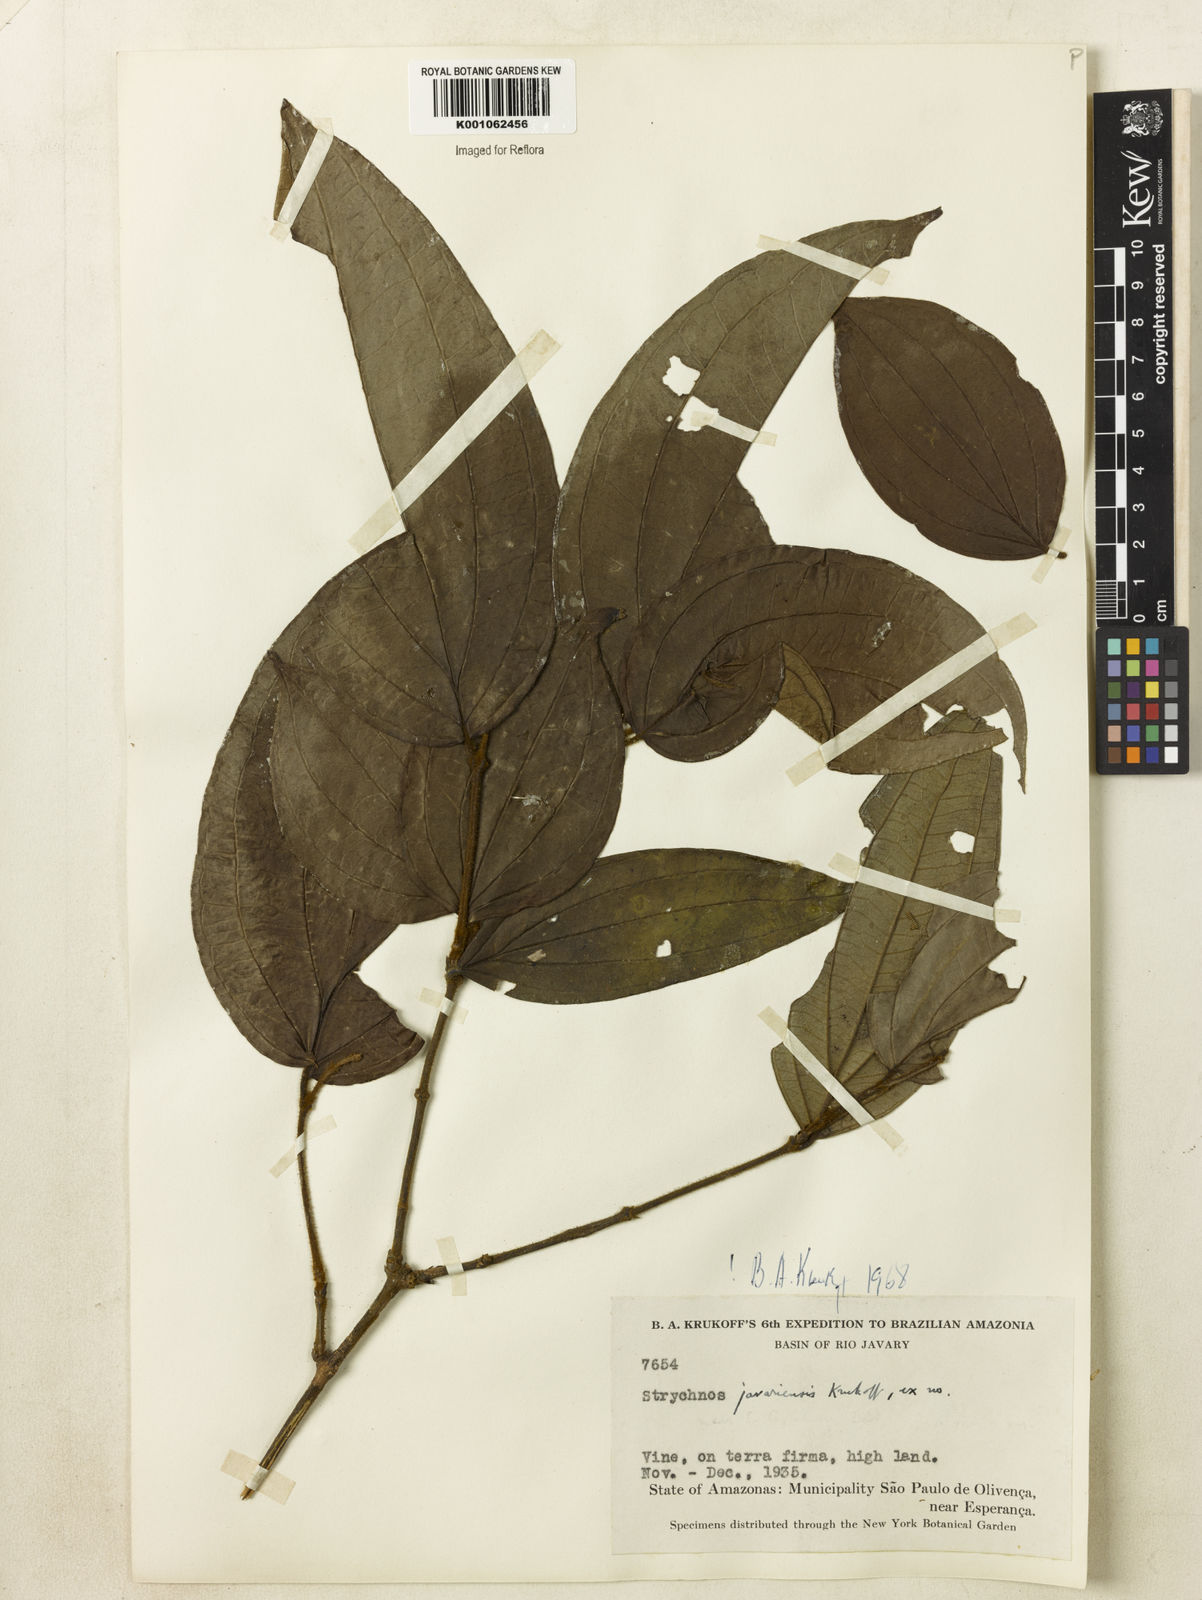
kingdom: Plantae
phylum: Tracheophyta
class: Magnoliopsida
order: Gentianales
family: Loganiaceae
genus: Strychnos
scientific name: Strychnos javariensis
